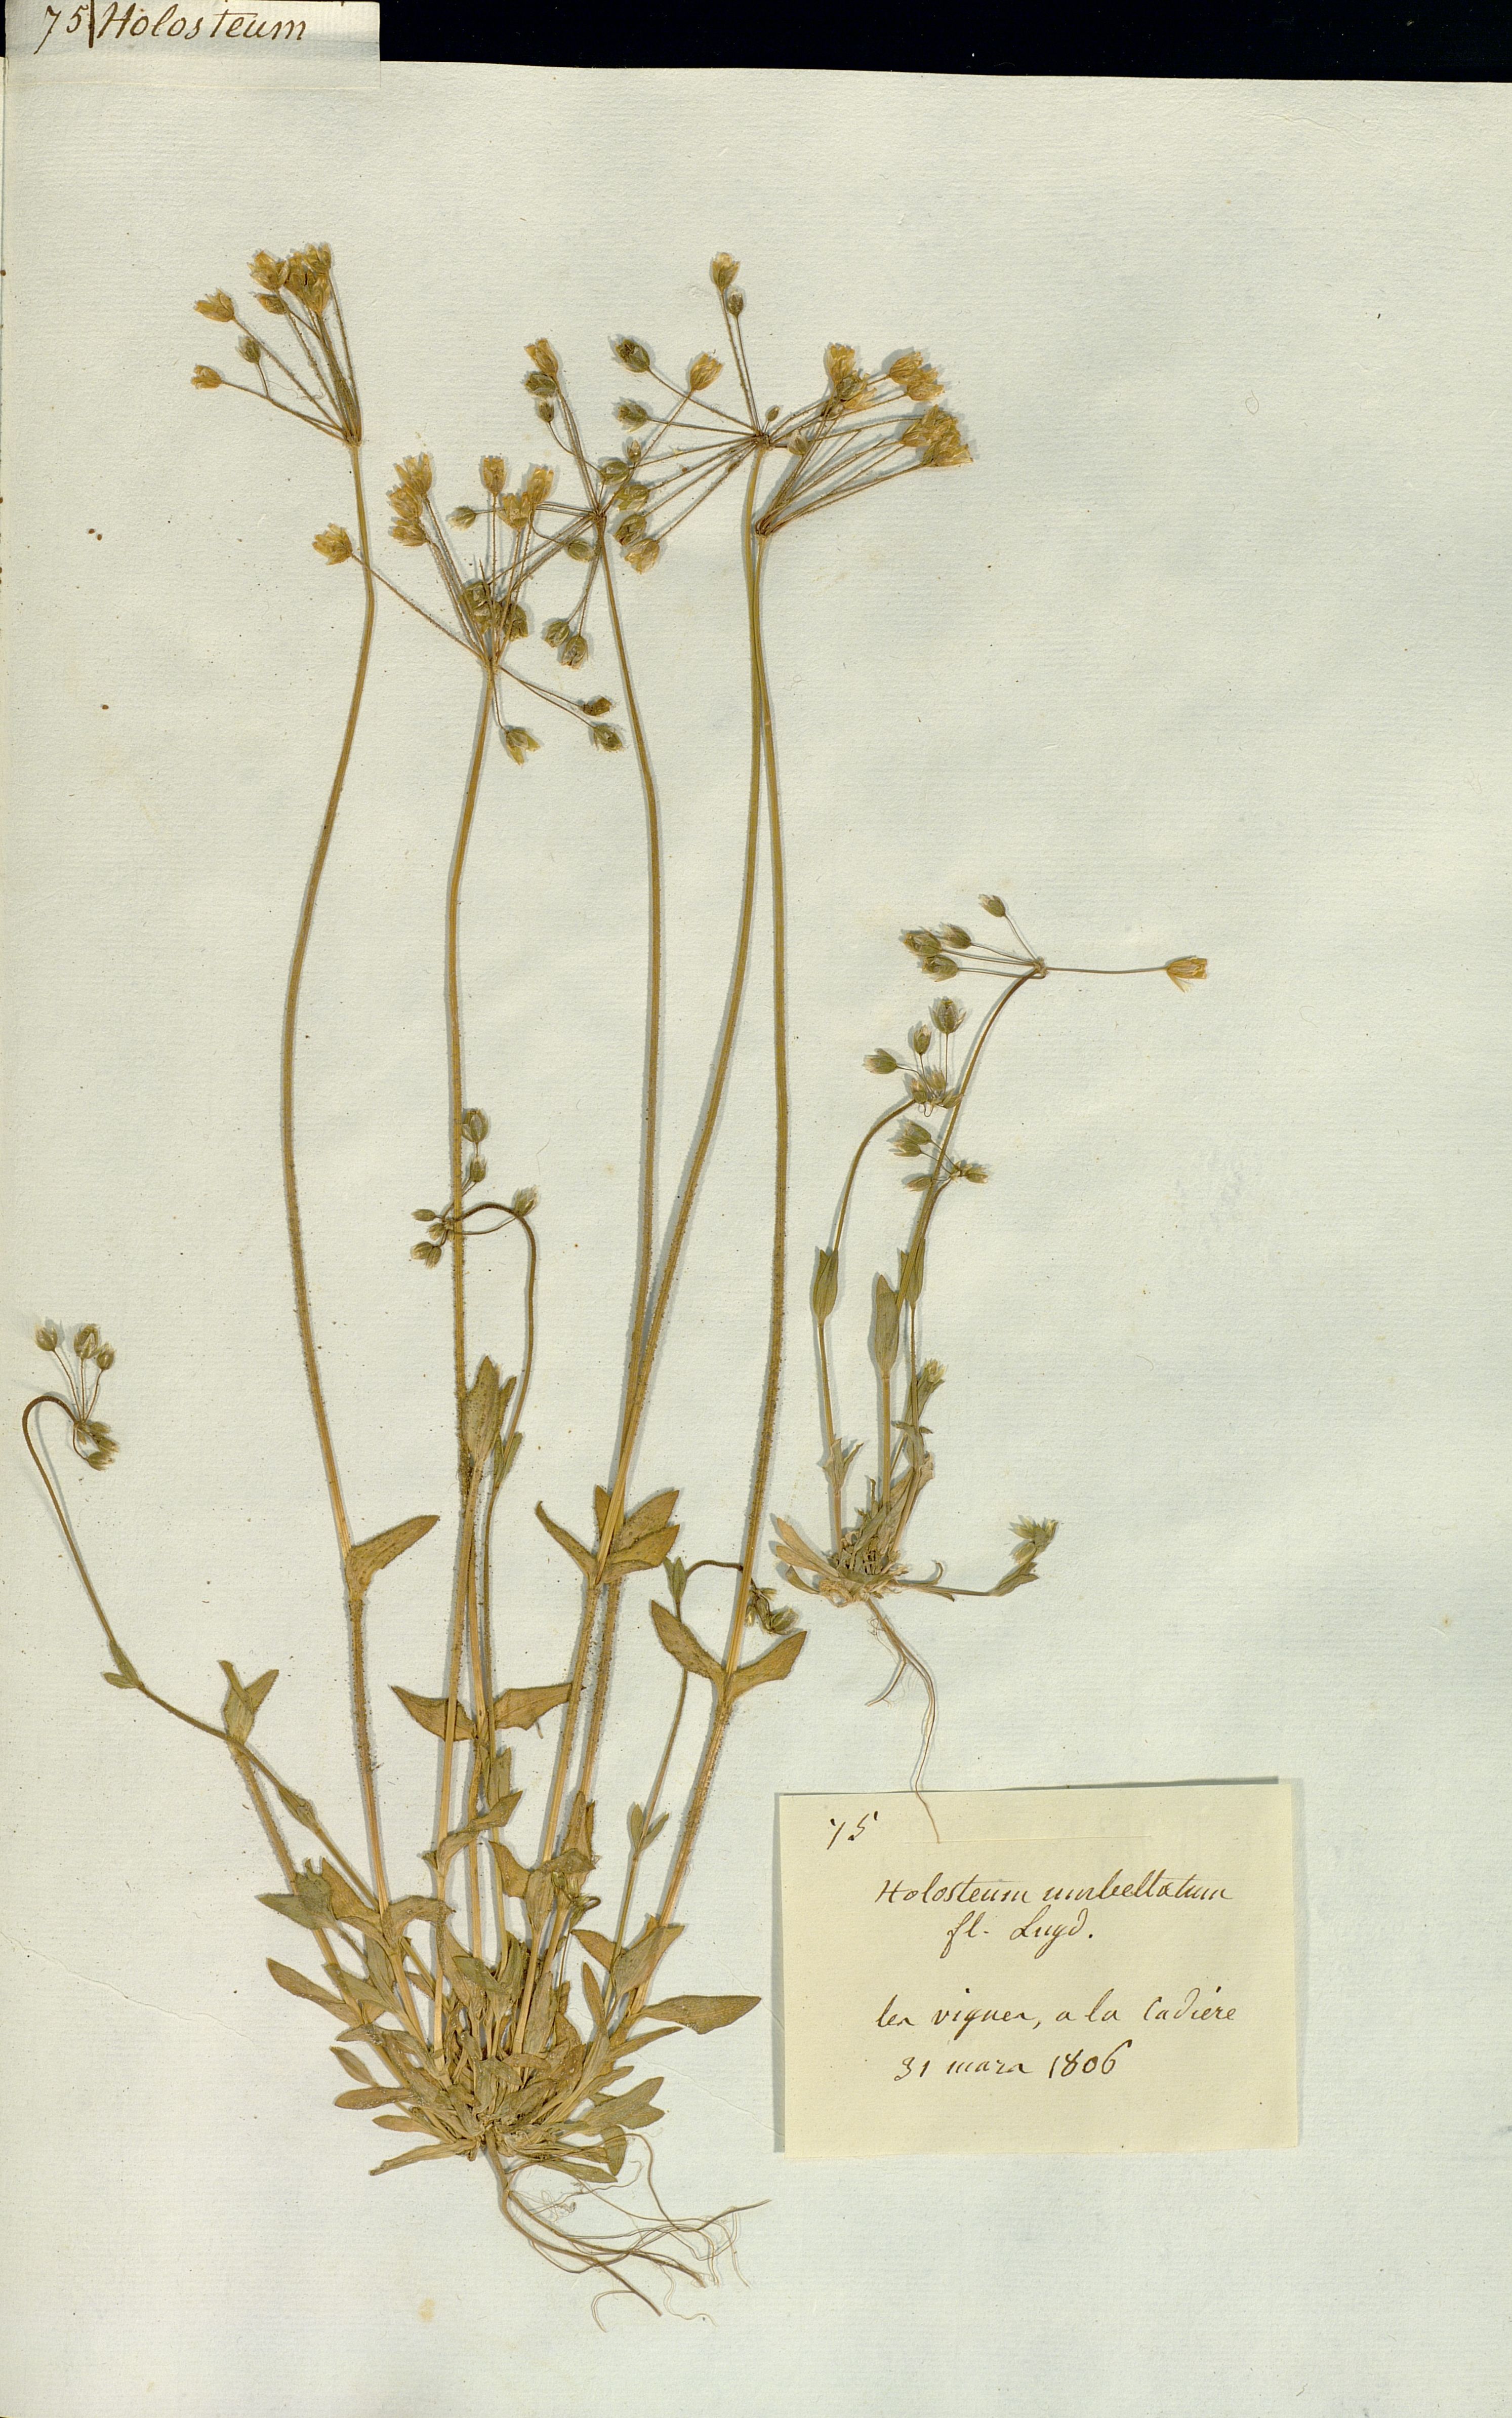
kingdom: Plantae
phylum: Tracheophyta
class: Magnoliopsida
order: Caryophyllales
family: Caryophyllaceae
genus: Holosteum
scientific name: Holosteum umbellatum
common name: Jagged chickweed
